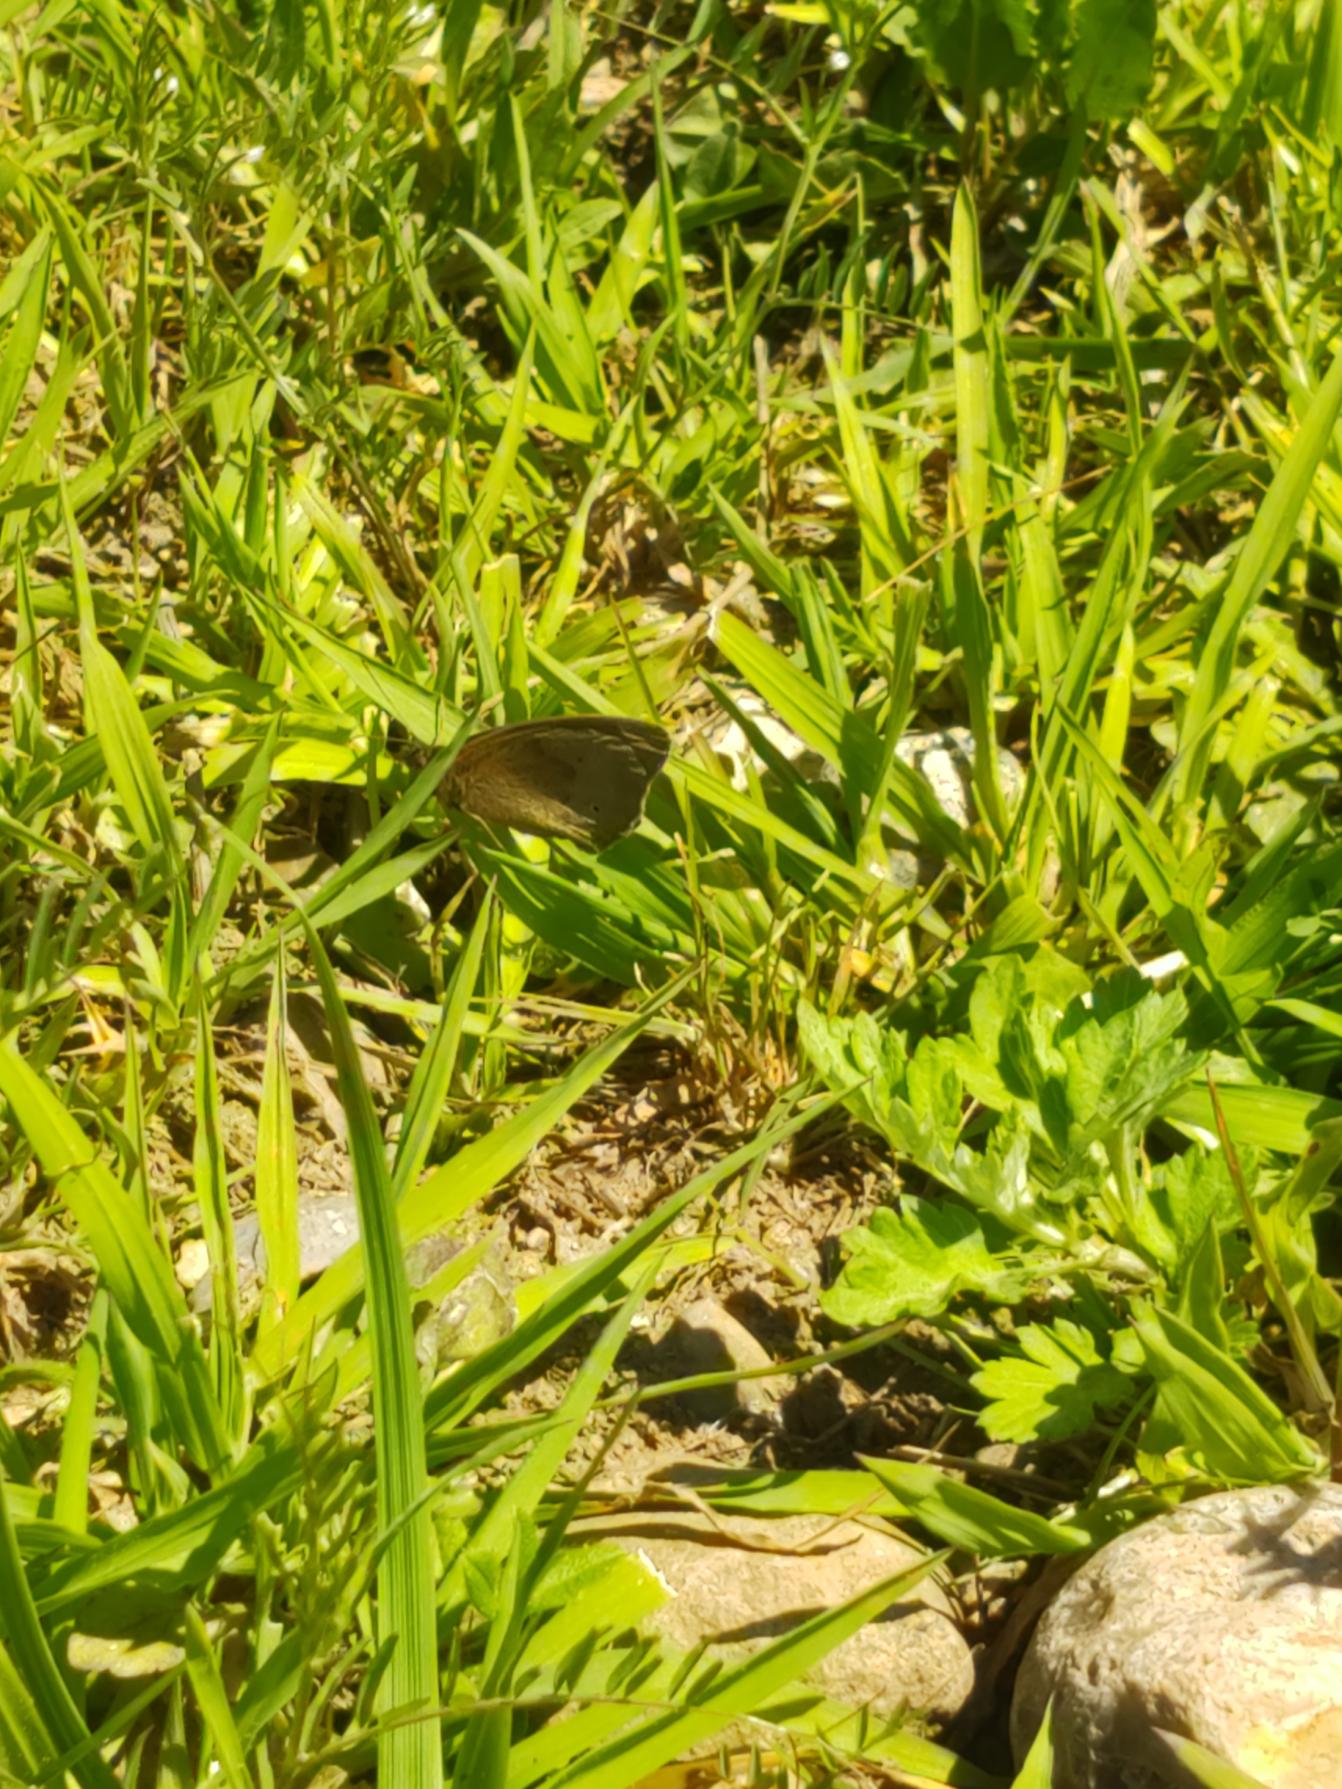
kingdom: Animalia
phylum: Arthropoda
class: Insecta
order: Lepidoptera
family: Nymphalidae
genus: Maniola
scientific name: Maniola jurtina
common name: Græsrandøje
